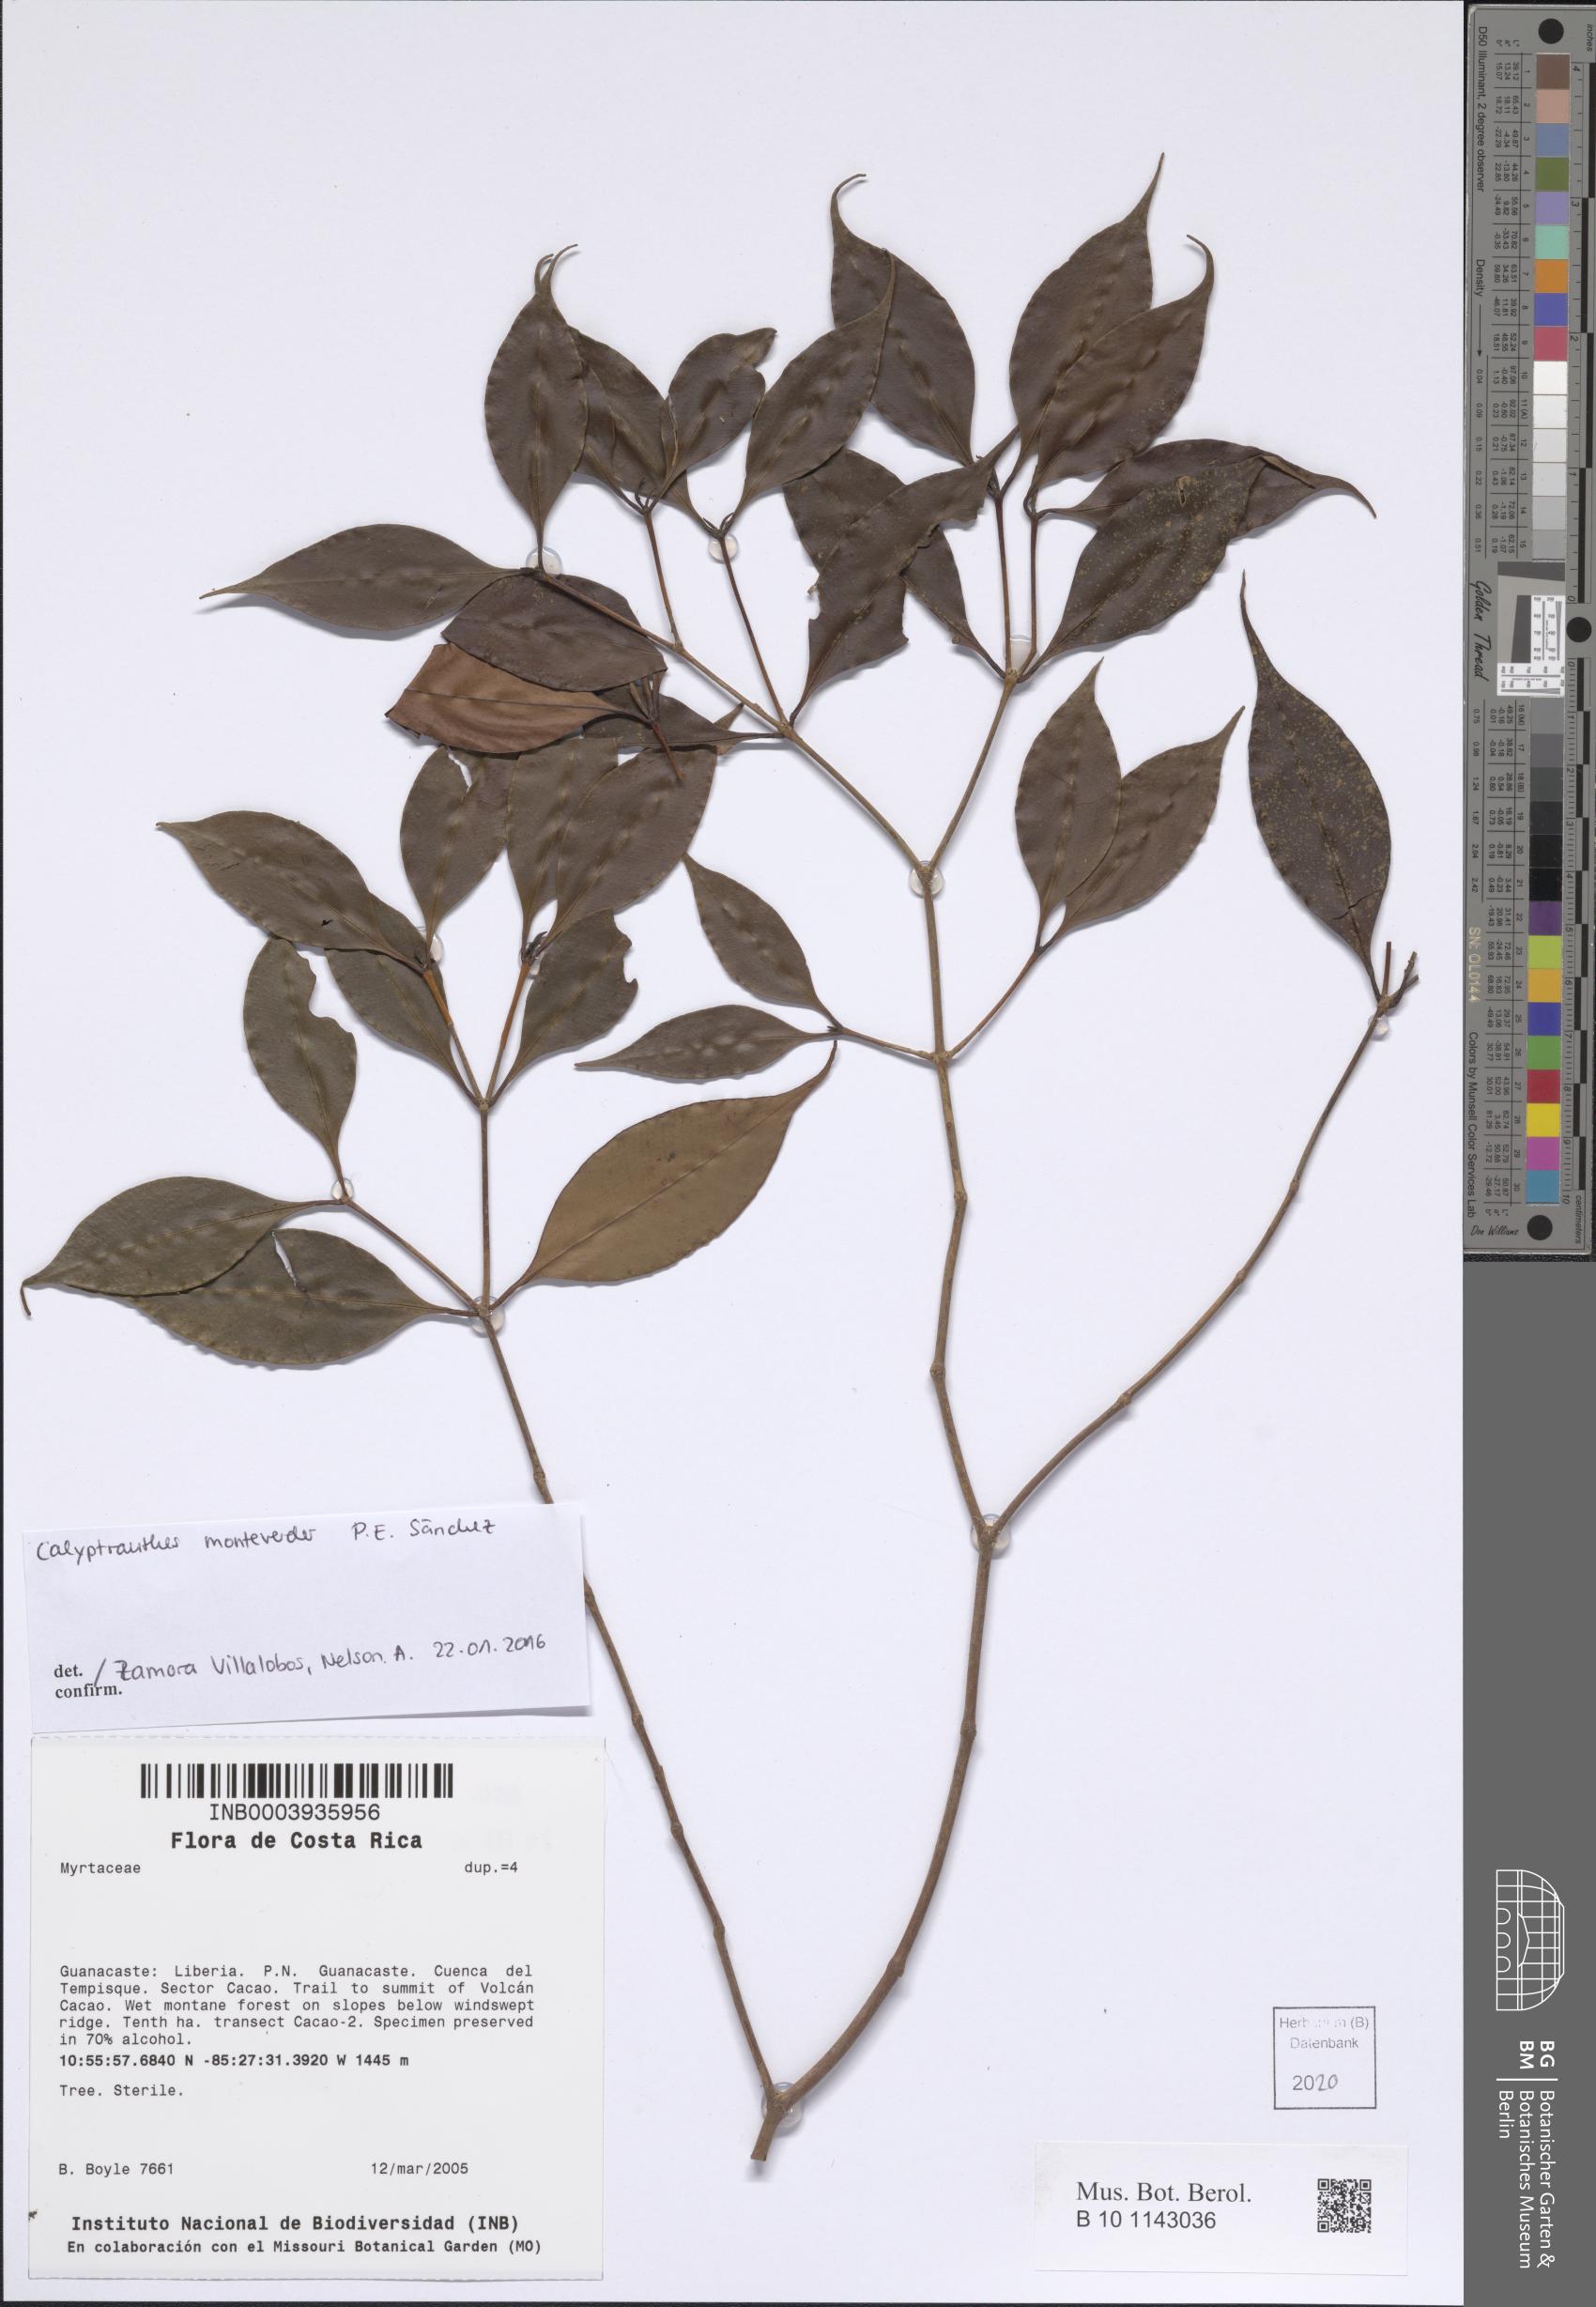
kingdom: Plantae
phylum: Tracheophyta
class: Magnoliopsida
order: Myrtales
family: Myrtaceae
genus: Myrcia
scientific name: Myrcia monteverdensis
